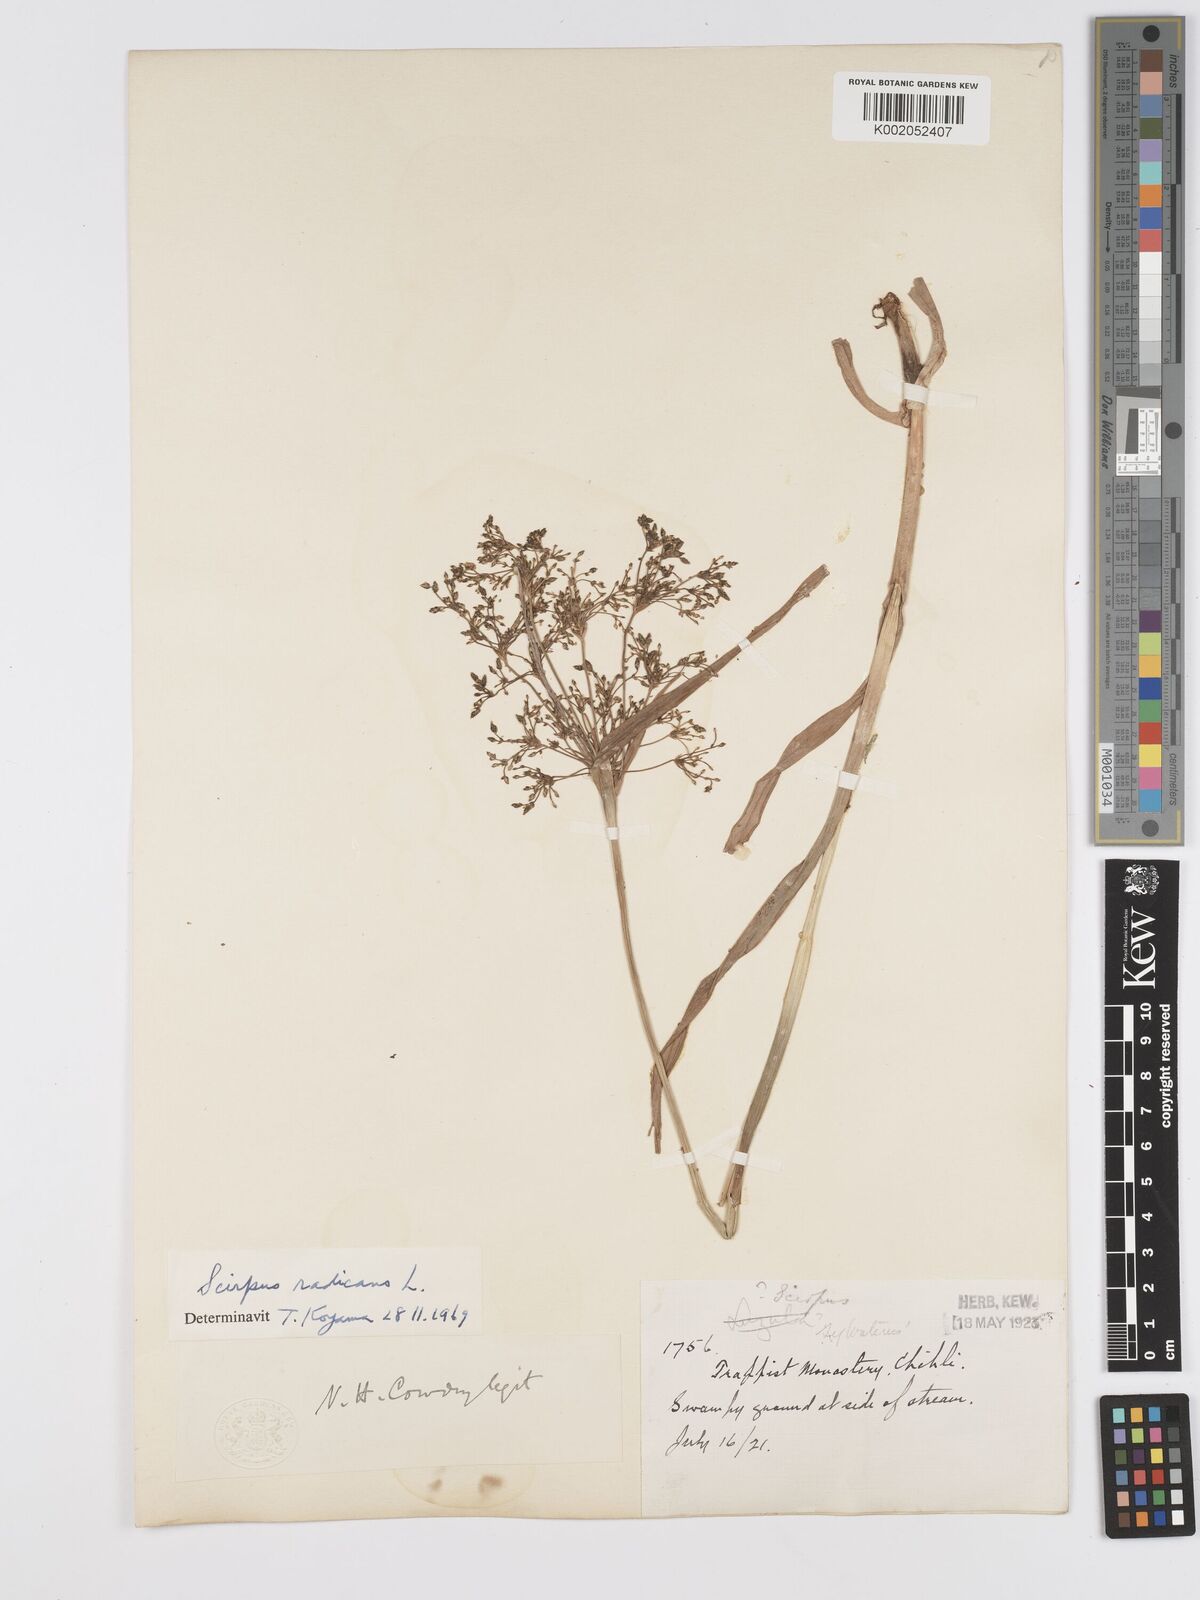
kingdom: Plantae
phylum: Tracheophyta
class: Liliopsida
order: Poales
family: Cyperaceae
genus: Scirpus
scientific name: Scirpus radicans
